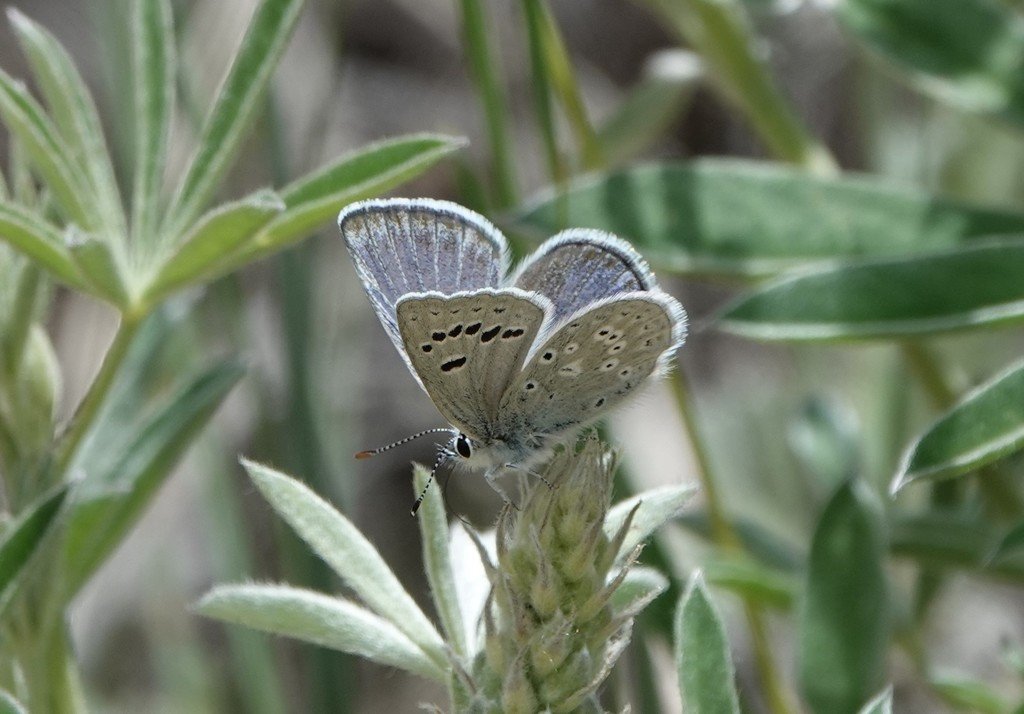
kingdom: Animalia
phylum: Arthropoda
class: Insecta
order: Lepidoptera
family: Lycaenidae
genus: Icaricia
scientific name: Icaricia icarioides
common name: Boisduval's Blue
